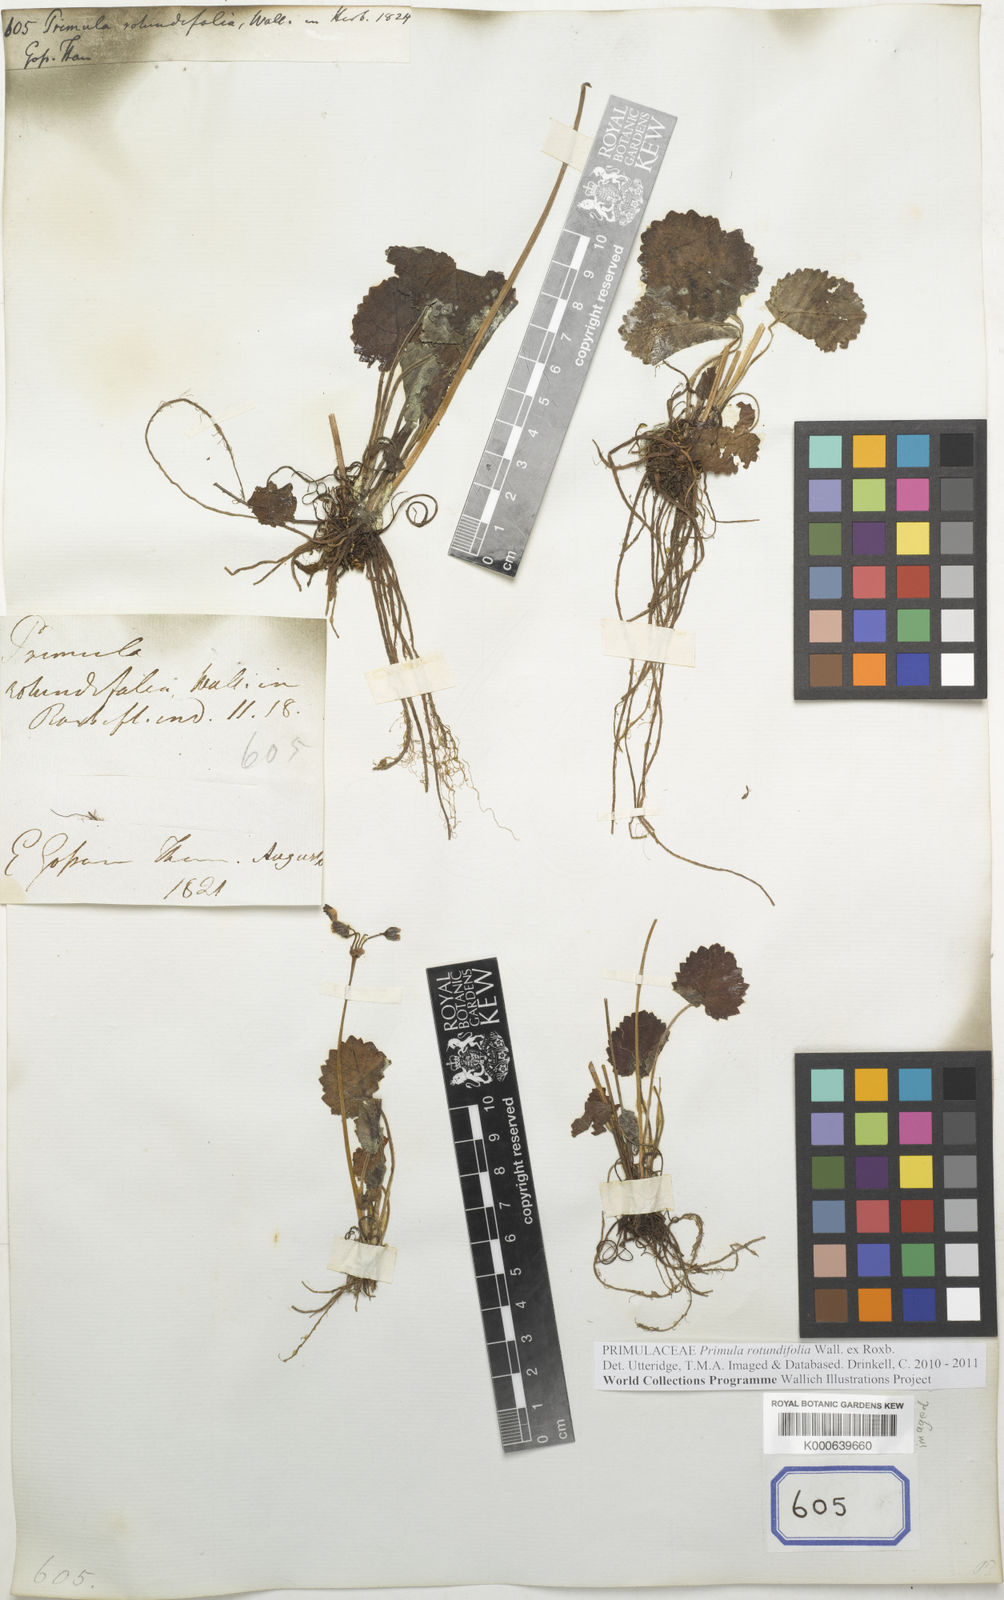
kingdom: Plantae
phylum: Tracheophyta
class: Magnoliopsida
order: Ericales
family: Primulaceae
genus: Primula
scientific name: Primula
